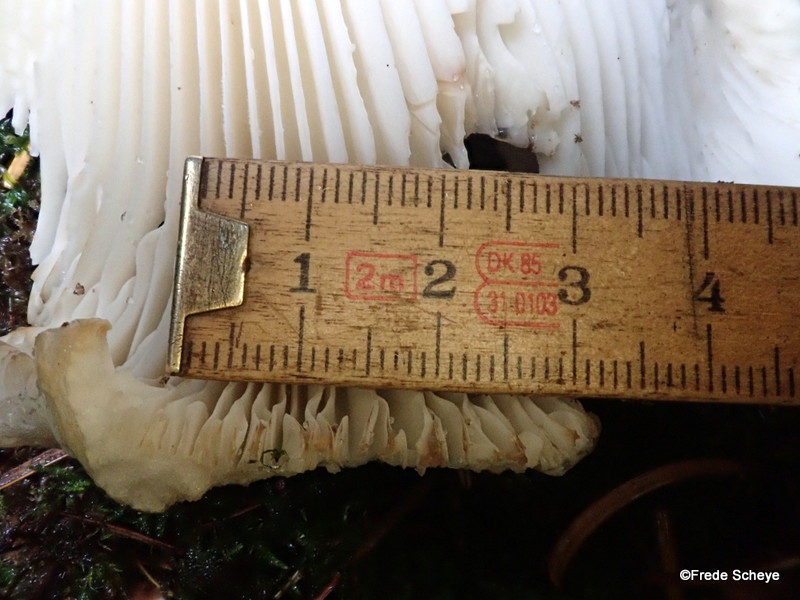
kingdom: Fungi
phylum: Basidiomycota
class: Agaricomycetes
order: Russulales
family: Russulaceae
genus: Russula
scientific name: Russula delica
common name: almindelig tragt-skørhat
